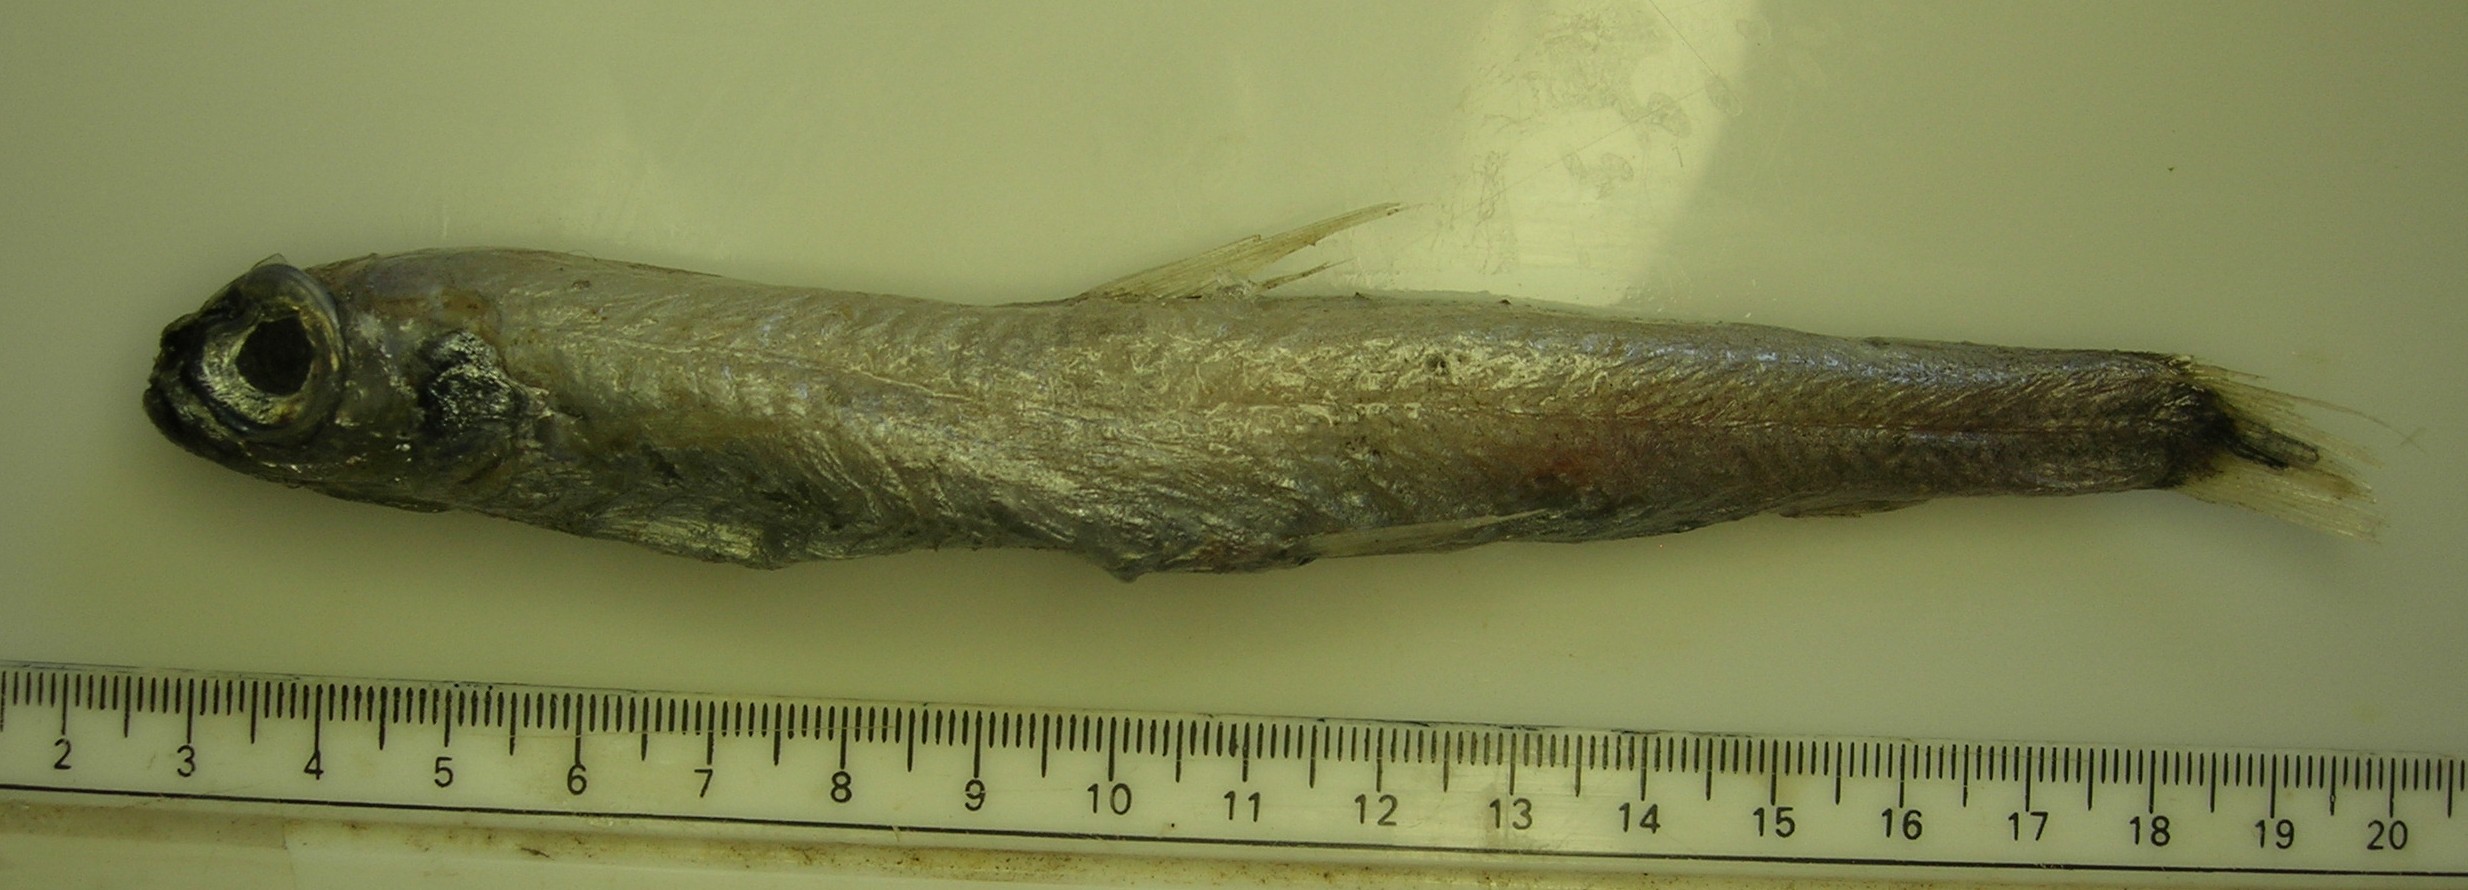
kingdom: Animalia
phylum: Chordata
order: Osmeriformes
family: Microstomatidae
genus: Nansenia
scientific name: Nansenia ardesiaca
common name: Robust smallmouth
